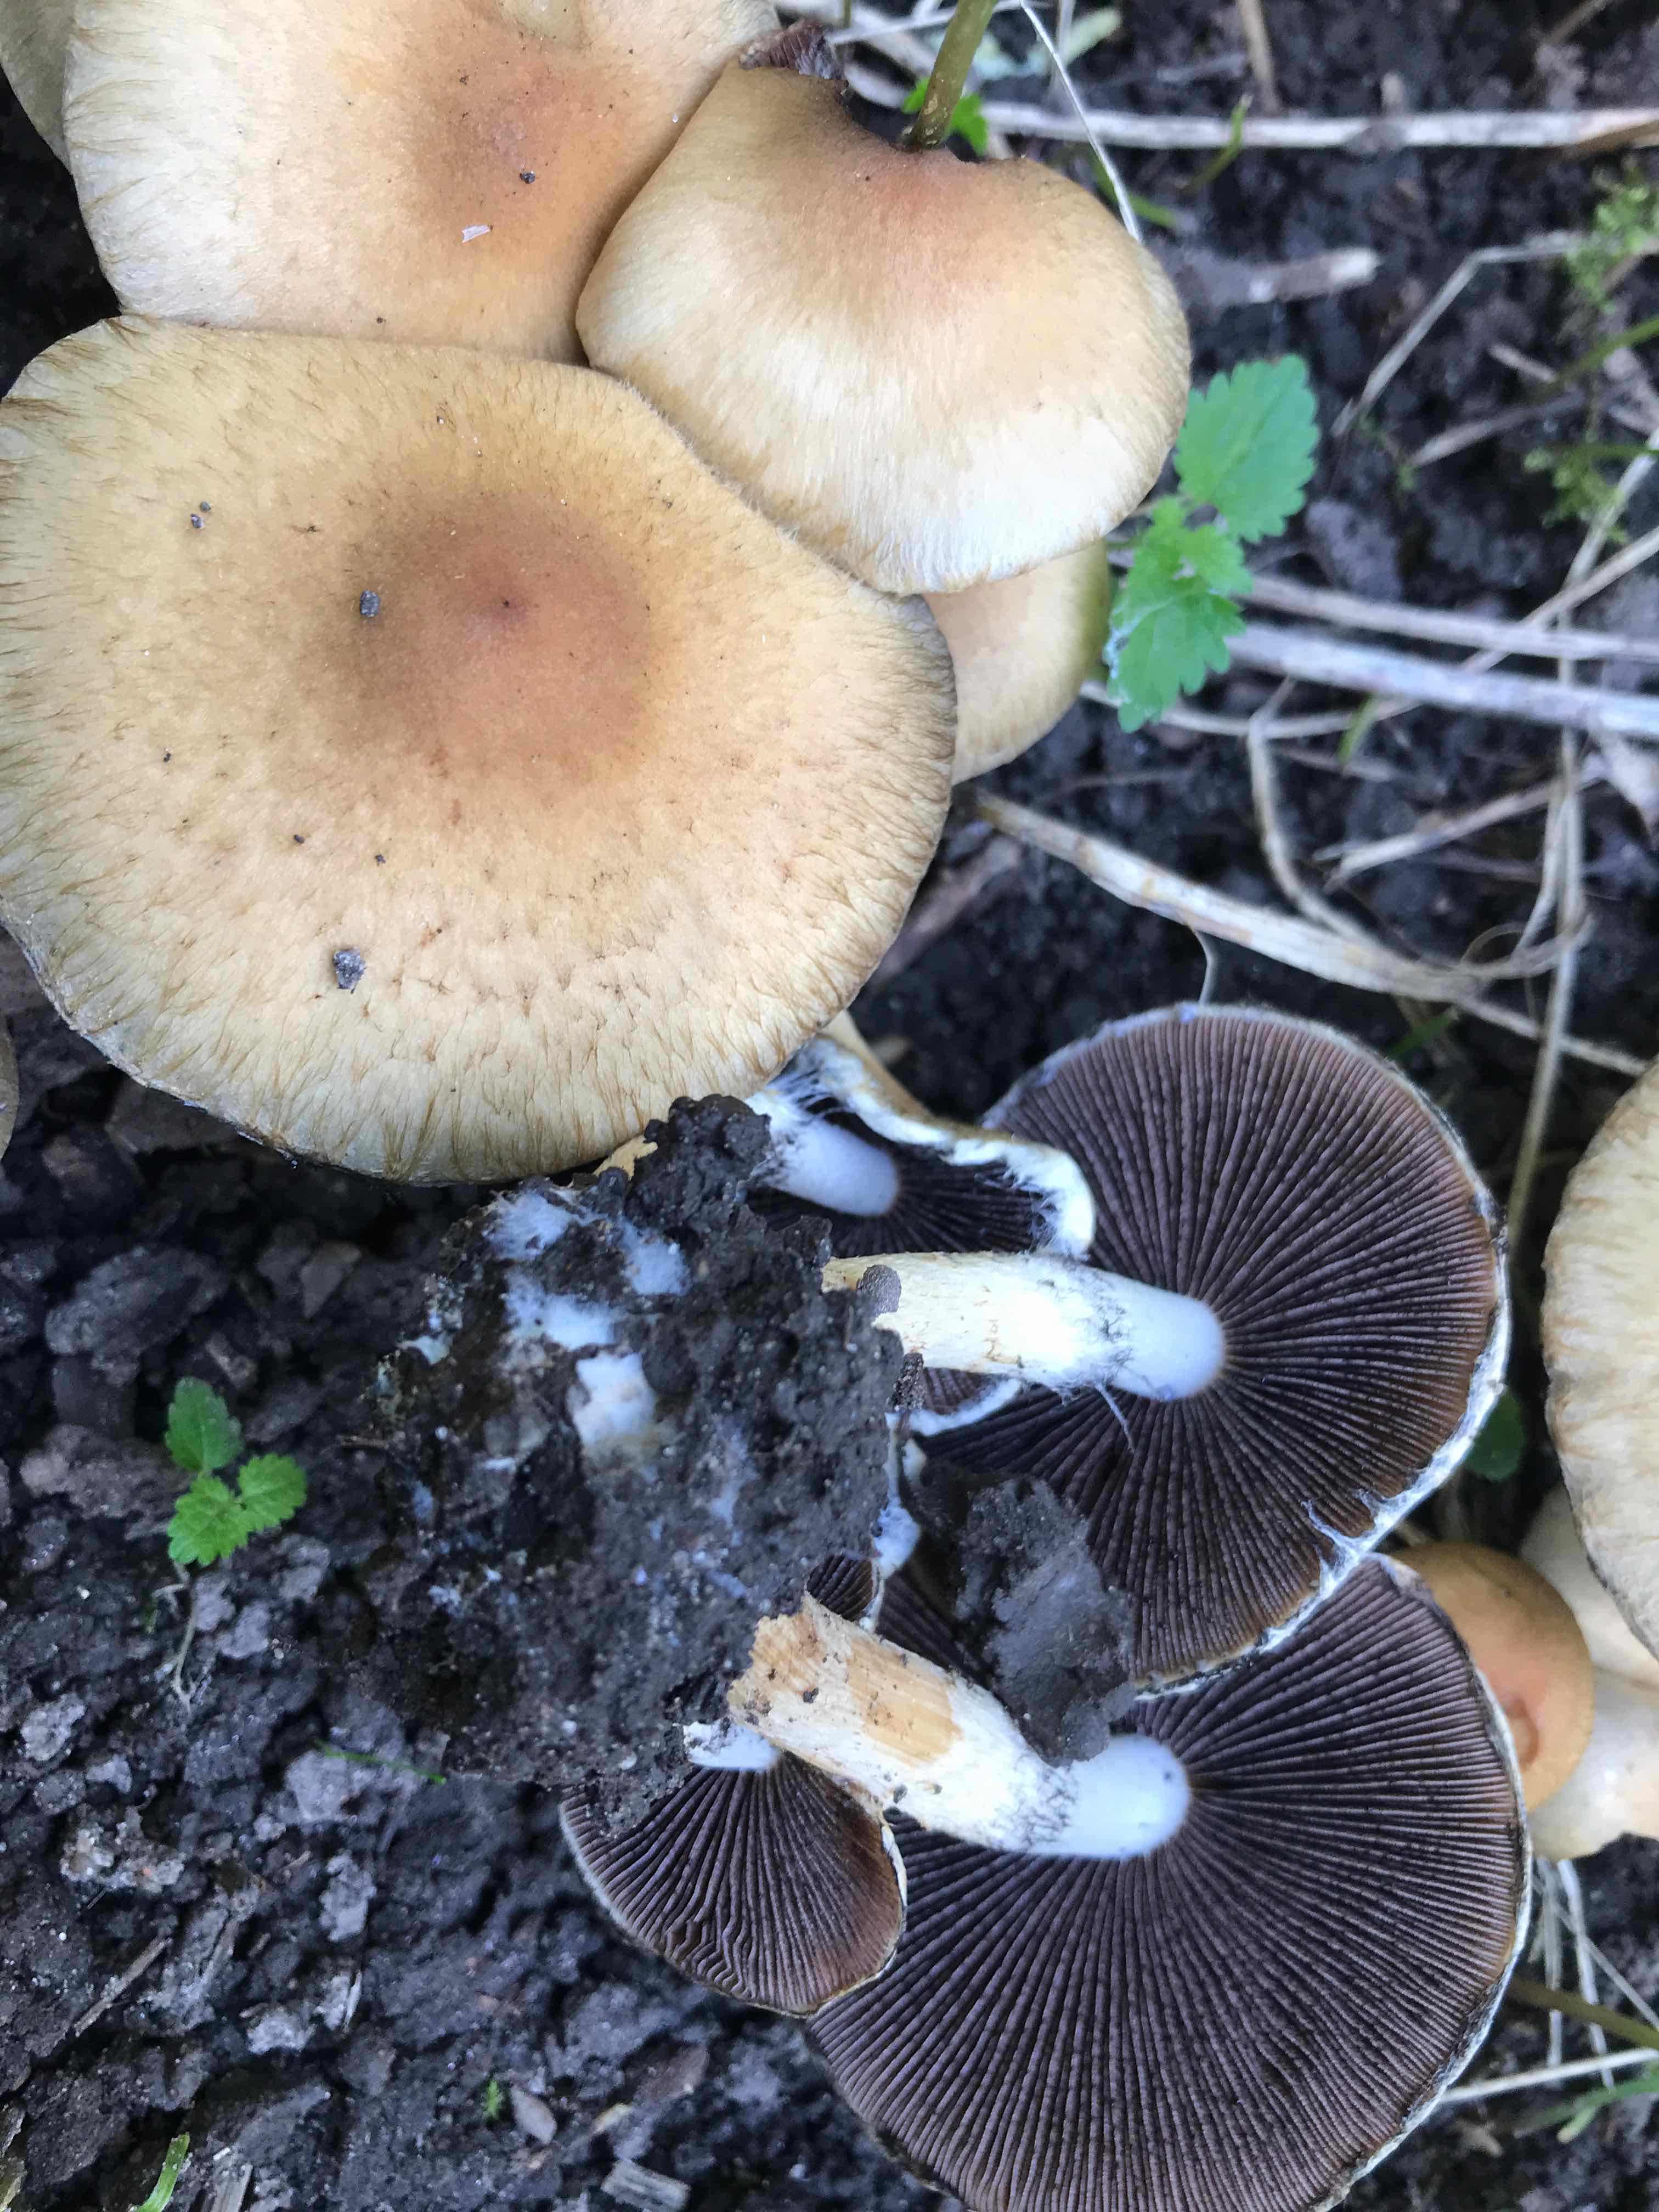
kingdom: Fungi
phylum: Basidiomycota
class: Agaricomycetes
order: Agaricales
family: Psathyrellaceae
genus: Lacrymaria
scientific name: Lacrymaria lacrymabunda
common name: grædende mørkhat
